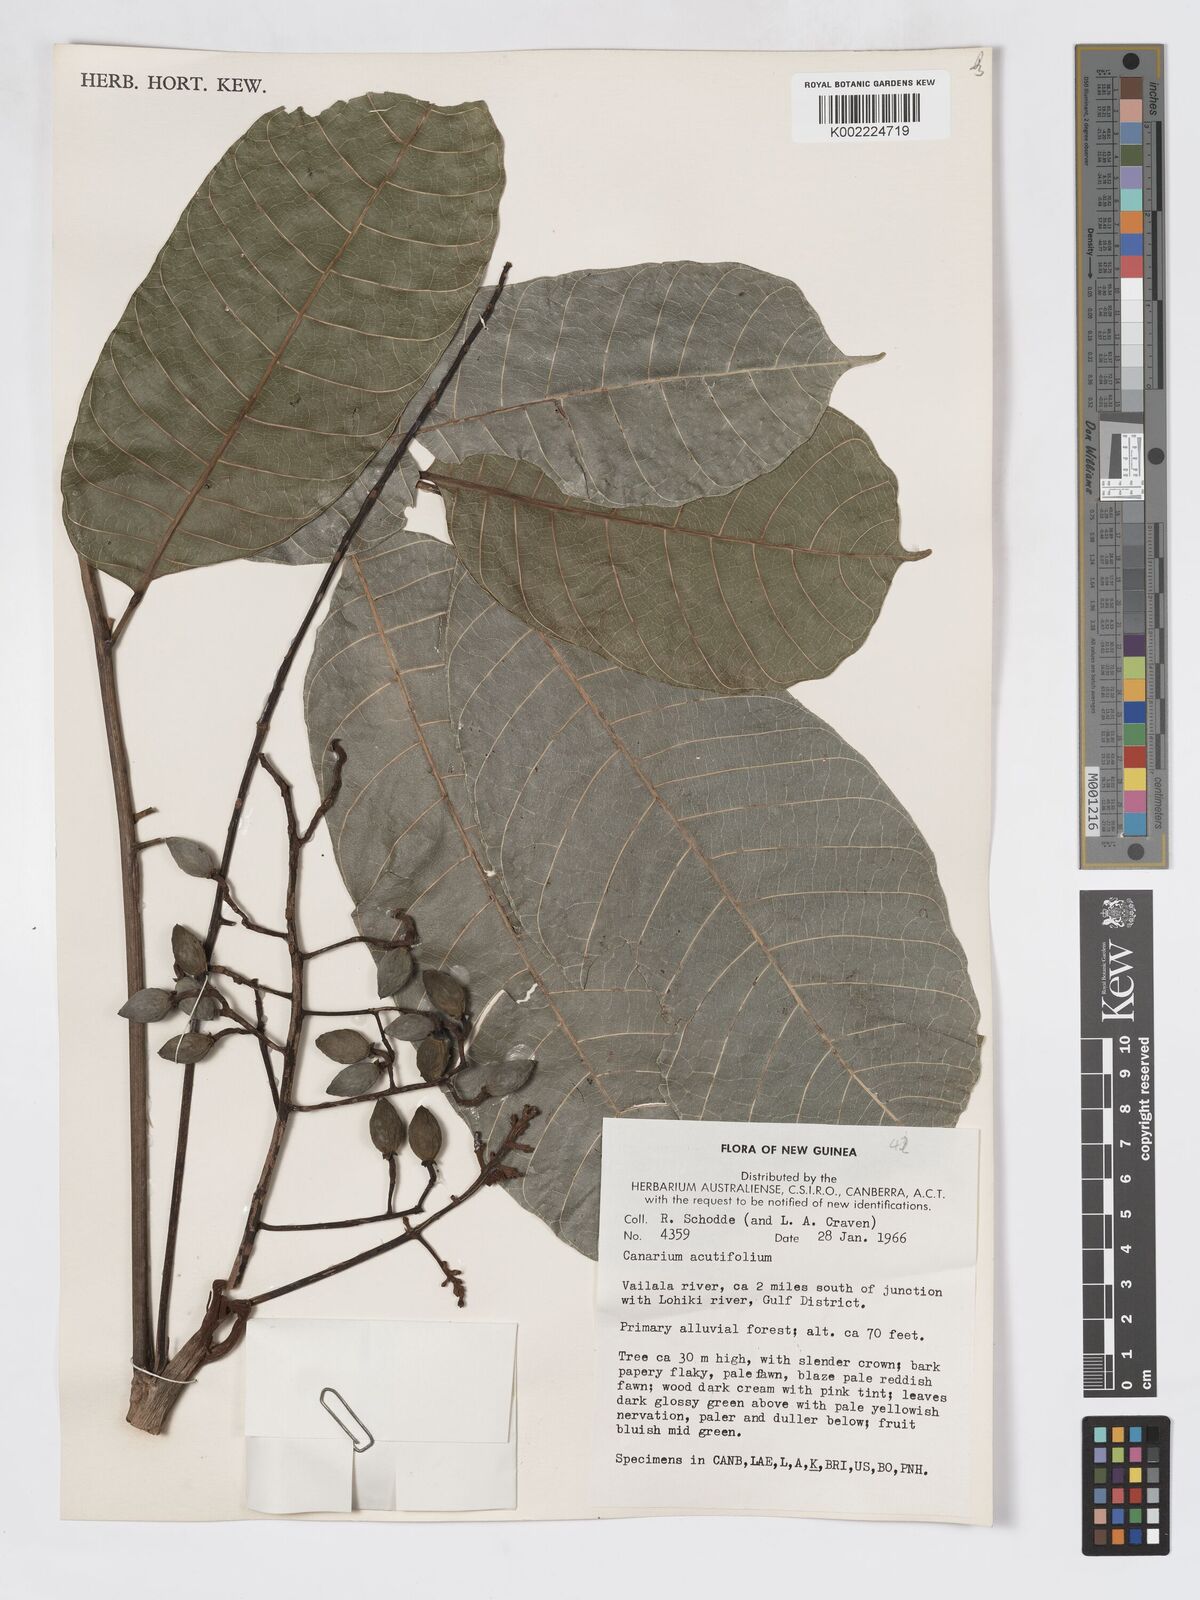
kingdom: Plantae
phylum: Tracheophyta
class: Magnoliopsida
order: Sapindales
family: Burseraceae
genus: Canarium
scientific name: Canarium acutifolium
